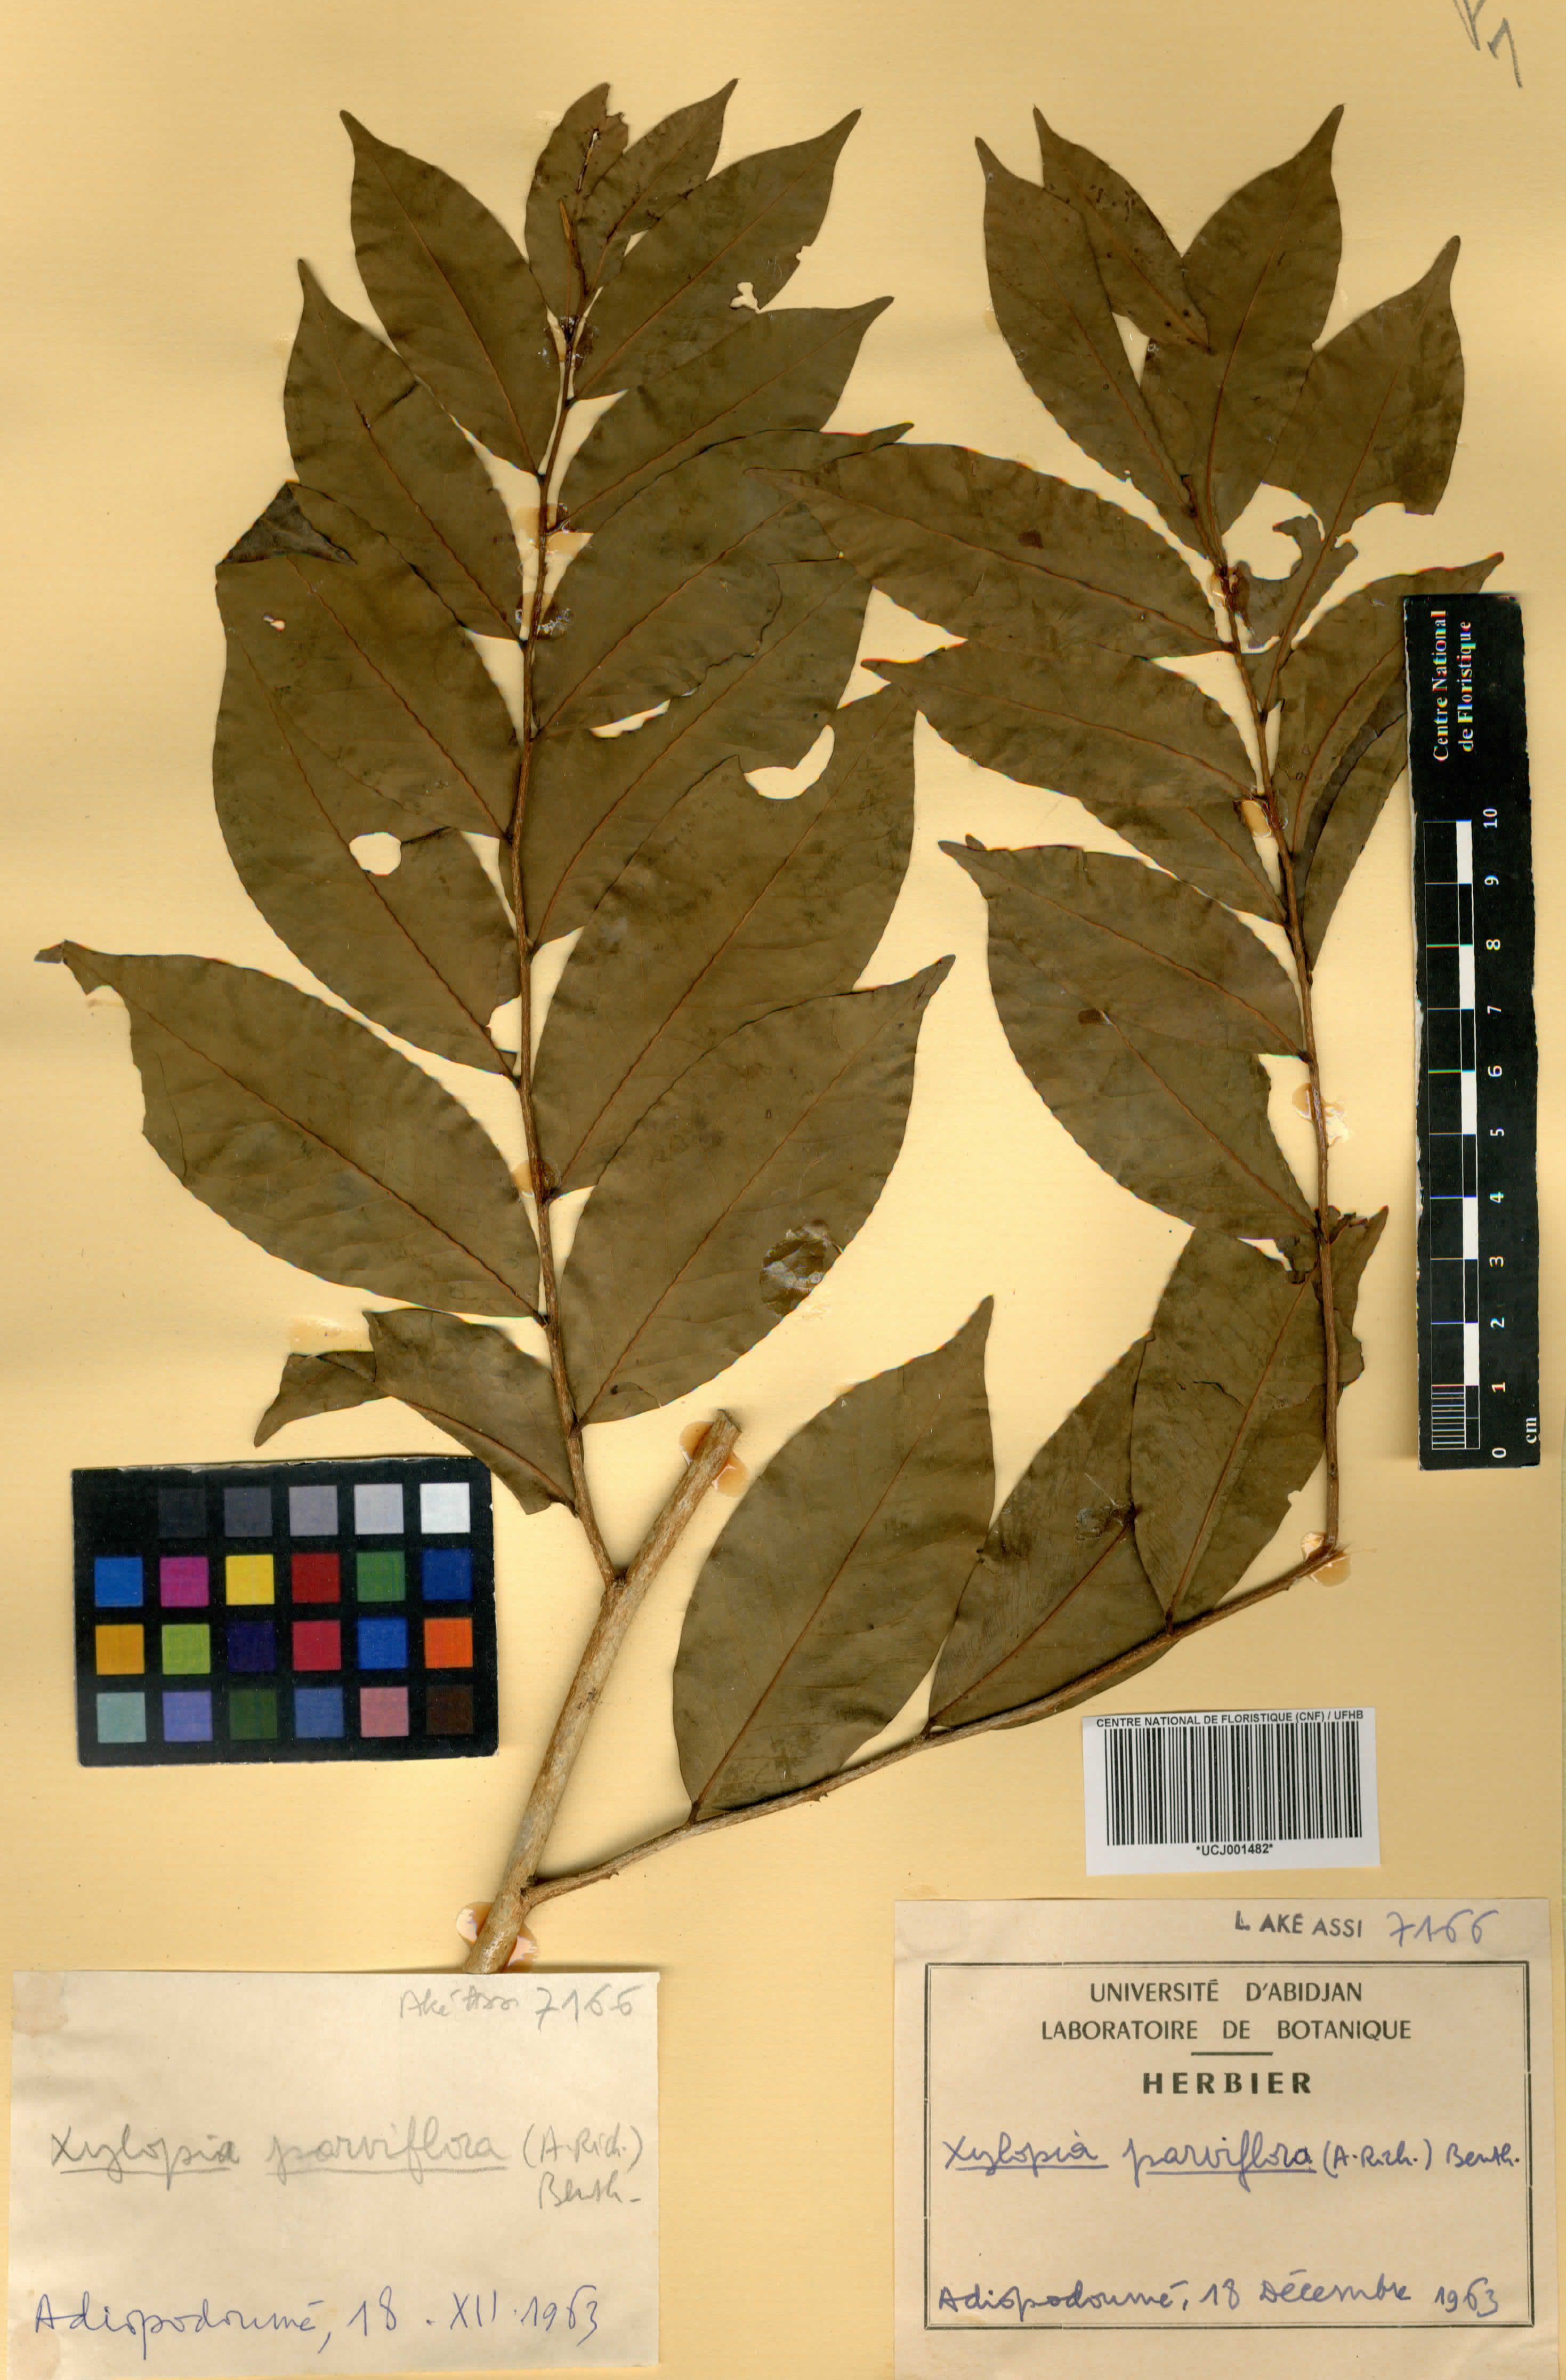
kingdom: Plantae
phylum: Tracheophyta
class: Magnoliopsida
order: Magnoliales
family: Annonaceae
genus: Xylopia
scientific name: Xylopia parviflora
